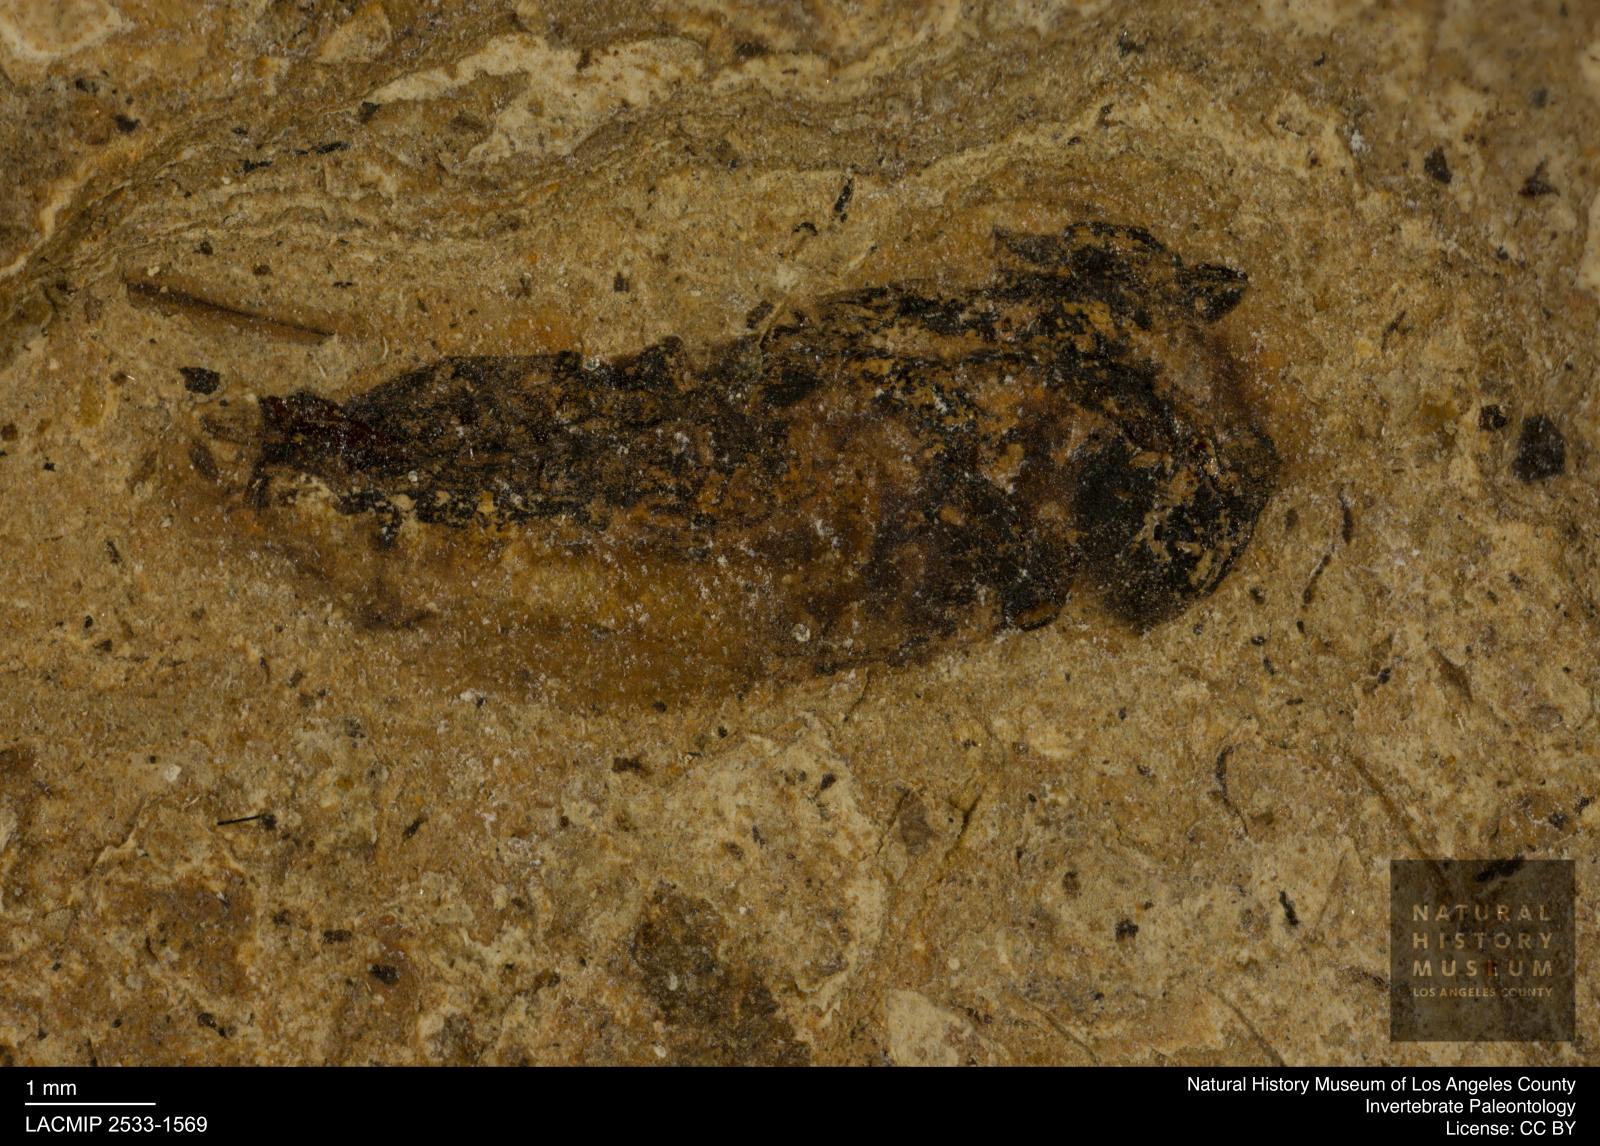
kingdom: Animalia
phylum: Arthropoda
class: Insecta
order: Hemiptera
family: Notonectidae
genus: Notonecta
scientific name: Notonecta
